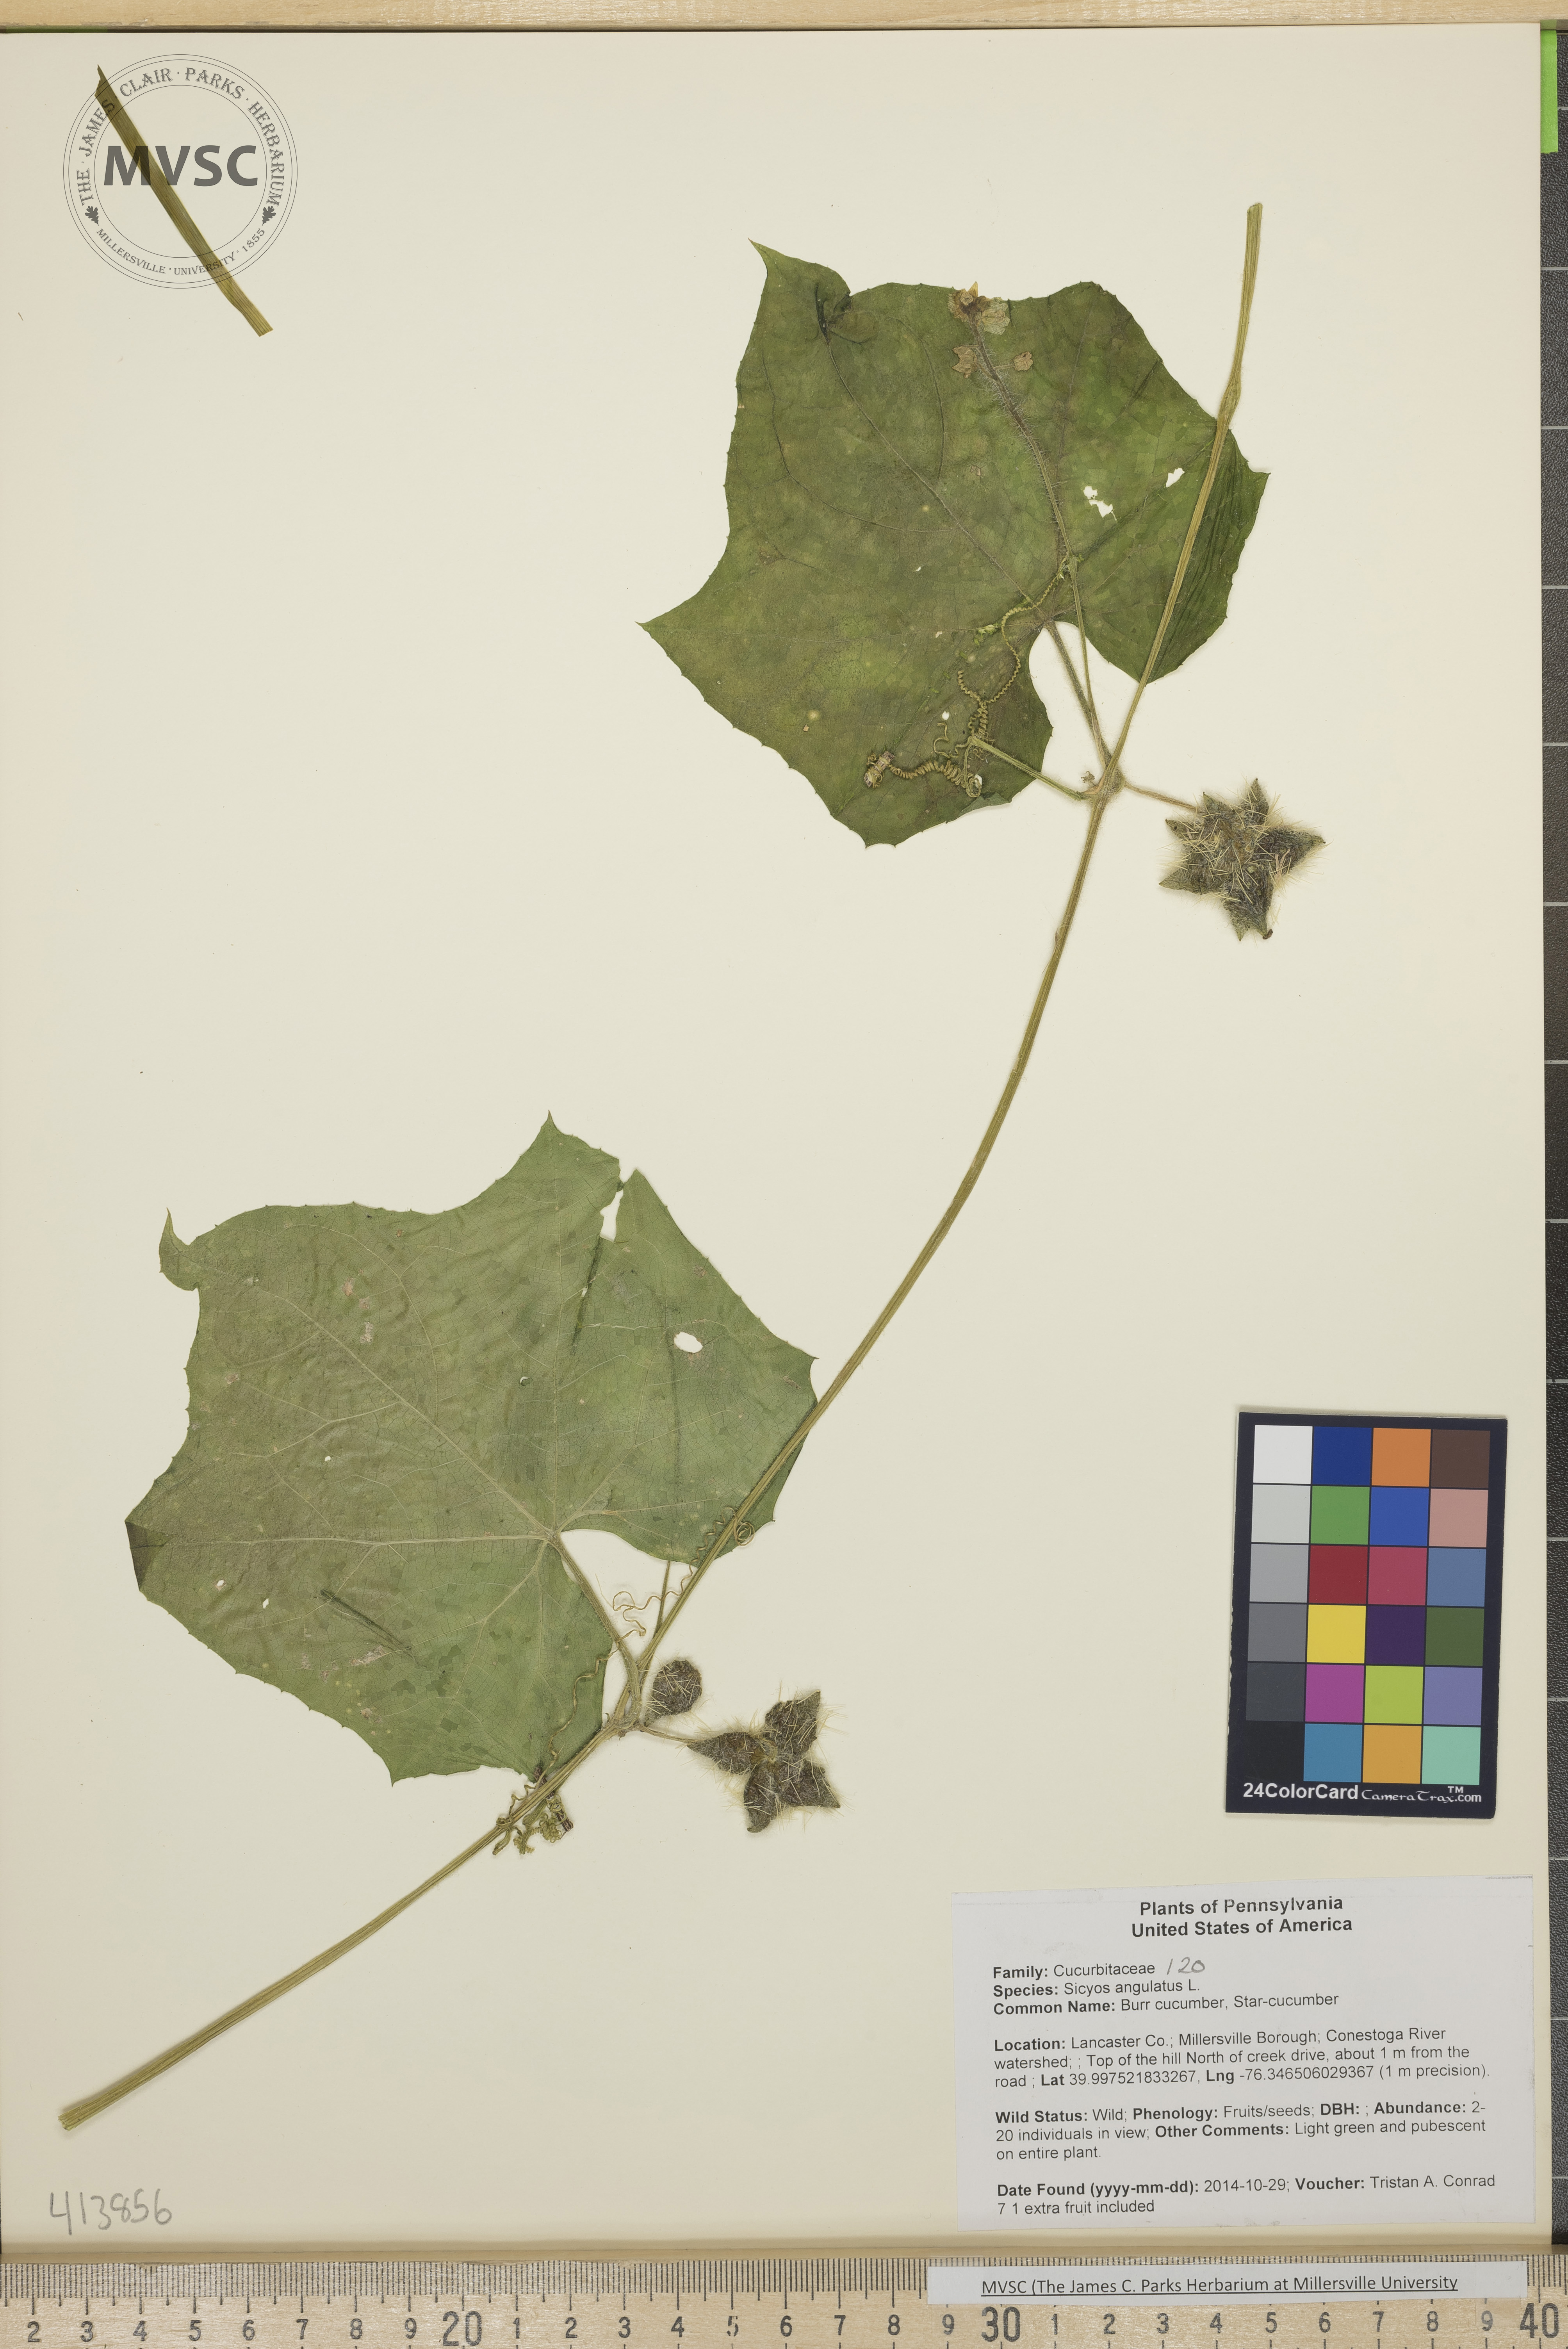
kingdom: Plantae
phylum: Tracheophyta
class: Magnoliopsida
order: Cucurbitales
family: Cucurbitaceae
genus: Sicyos
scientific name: Sicyos angulatus
